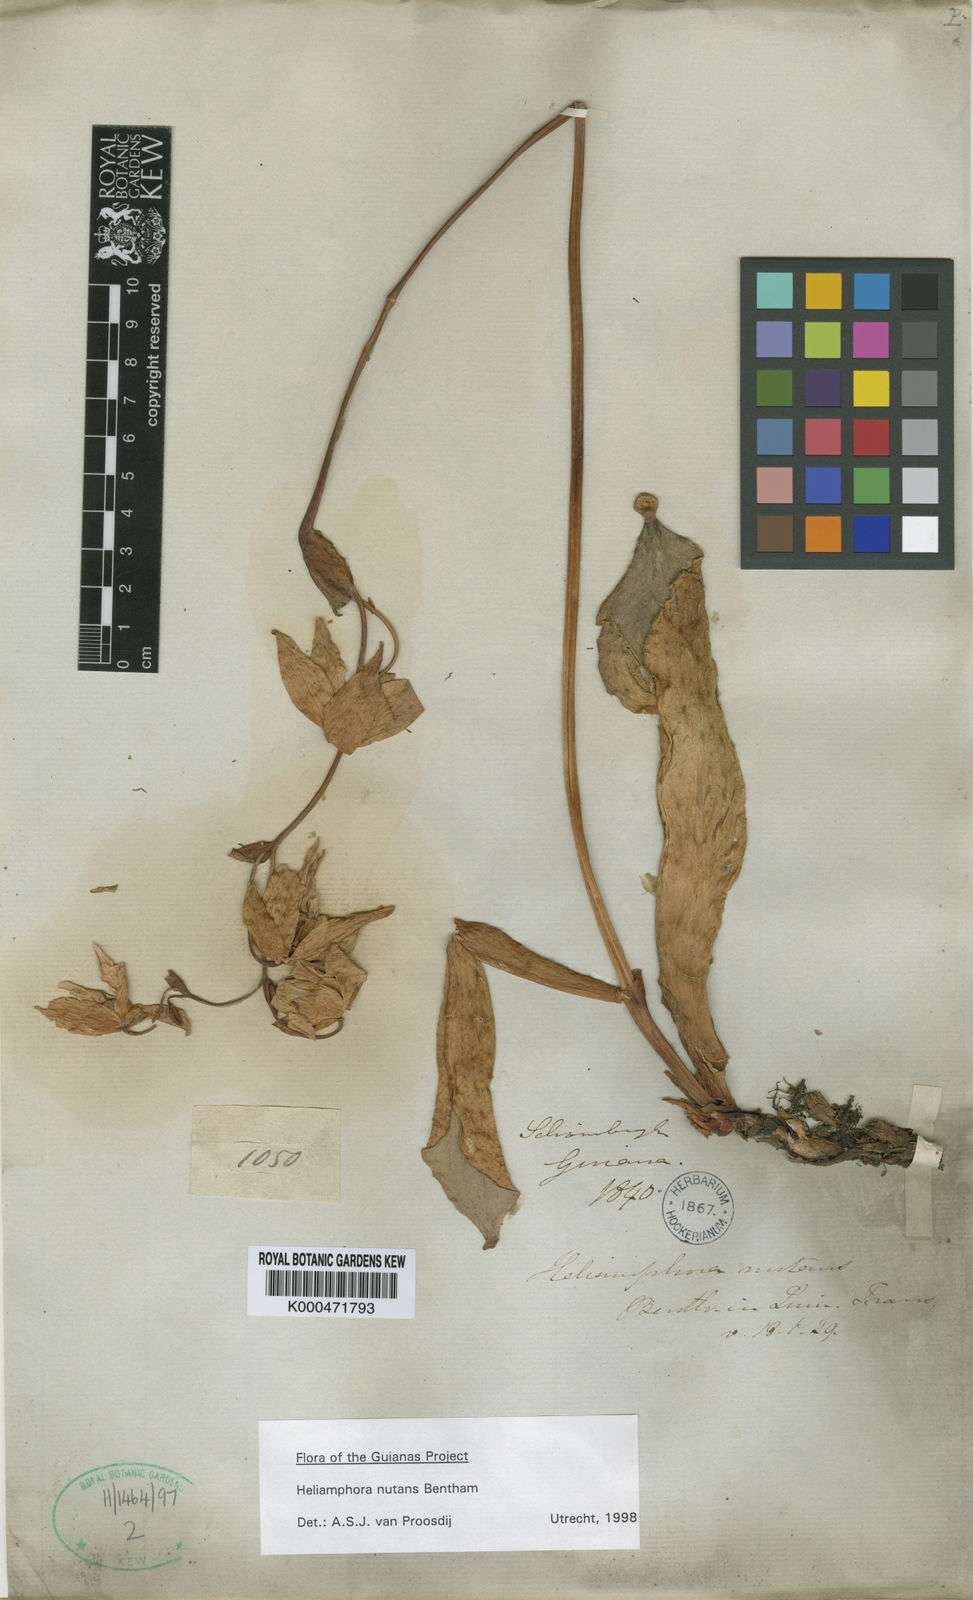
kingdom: Plantae
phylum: Tracheophyta
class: Magnoliopsida
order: Ericales
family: Sarraceniaceae
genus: Heliamphora
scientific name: Heliamphora nutans
